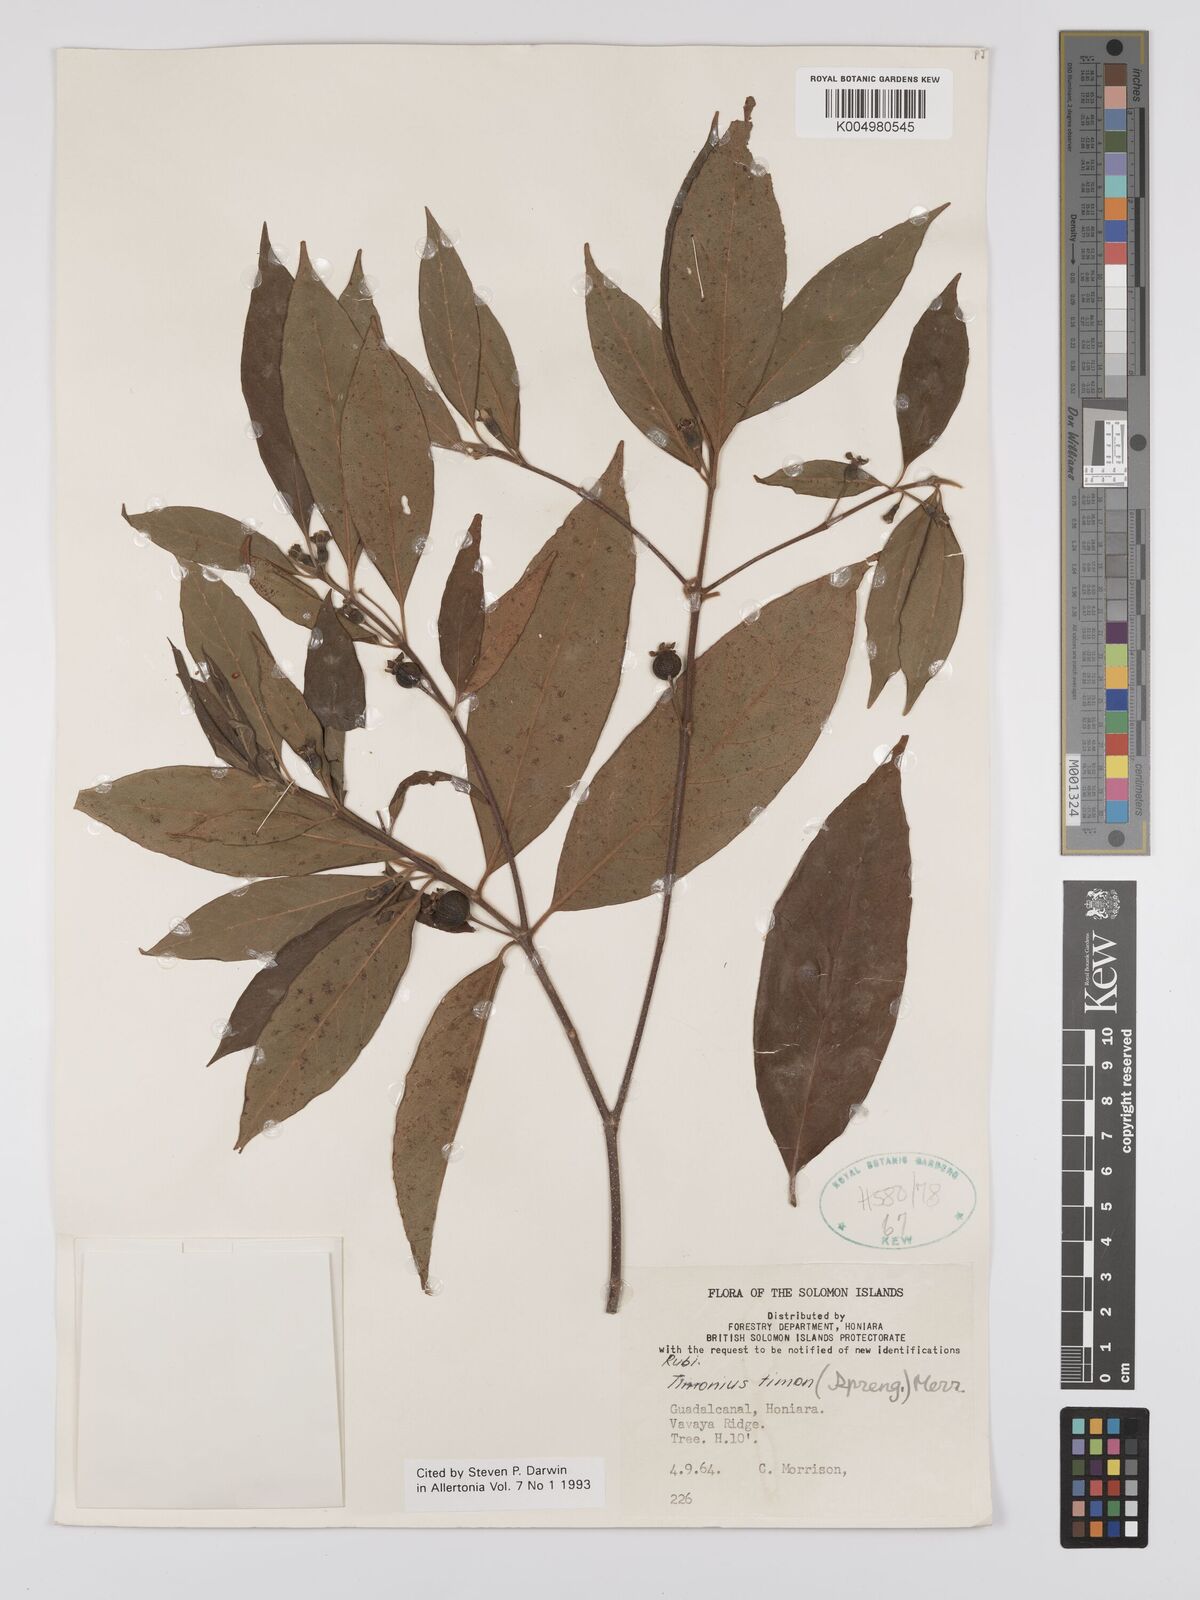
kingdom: Plantae
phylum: Tracheophyta
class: Magnoliopsida
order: Gentianales
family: Rubiaceae
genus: Timonius
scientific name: Timonius timon
